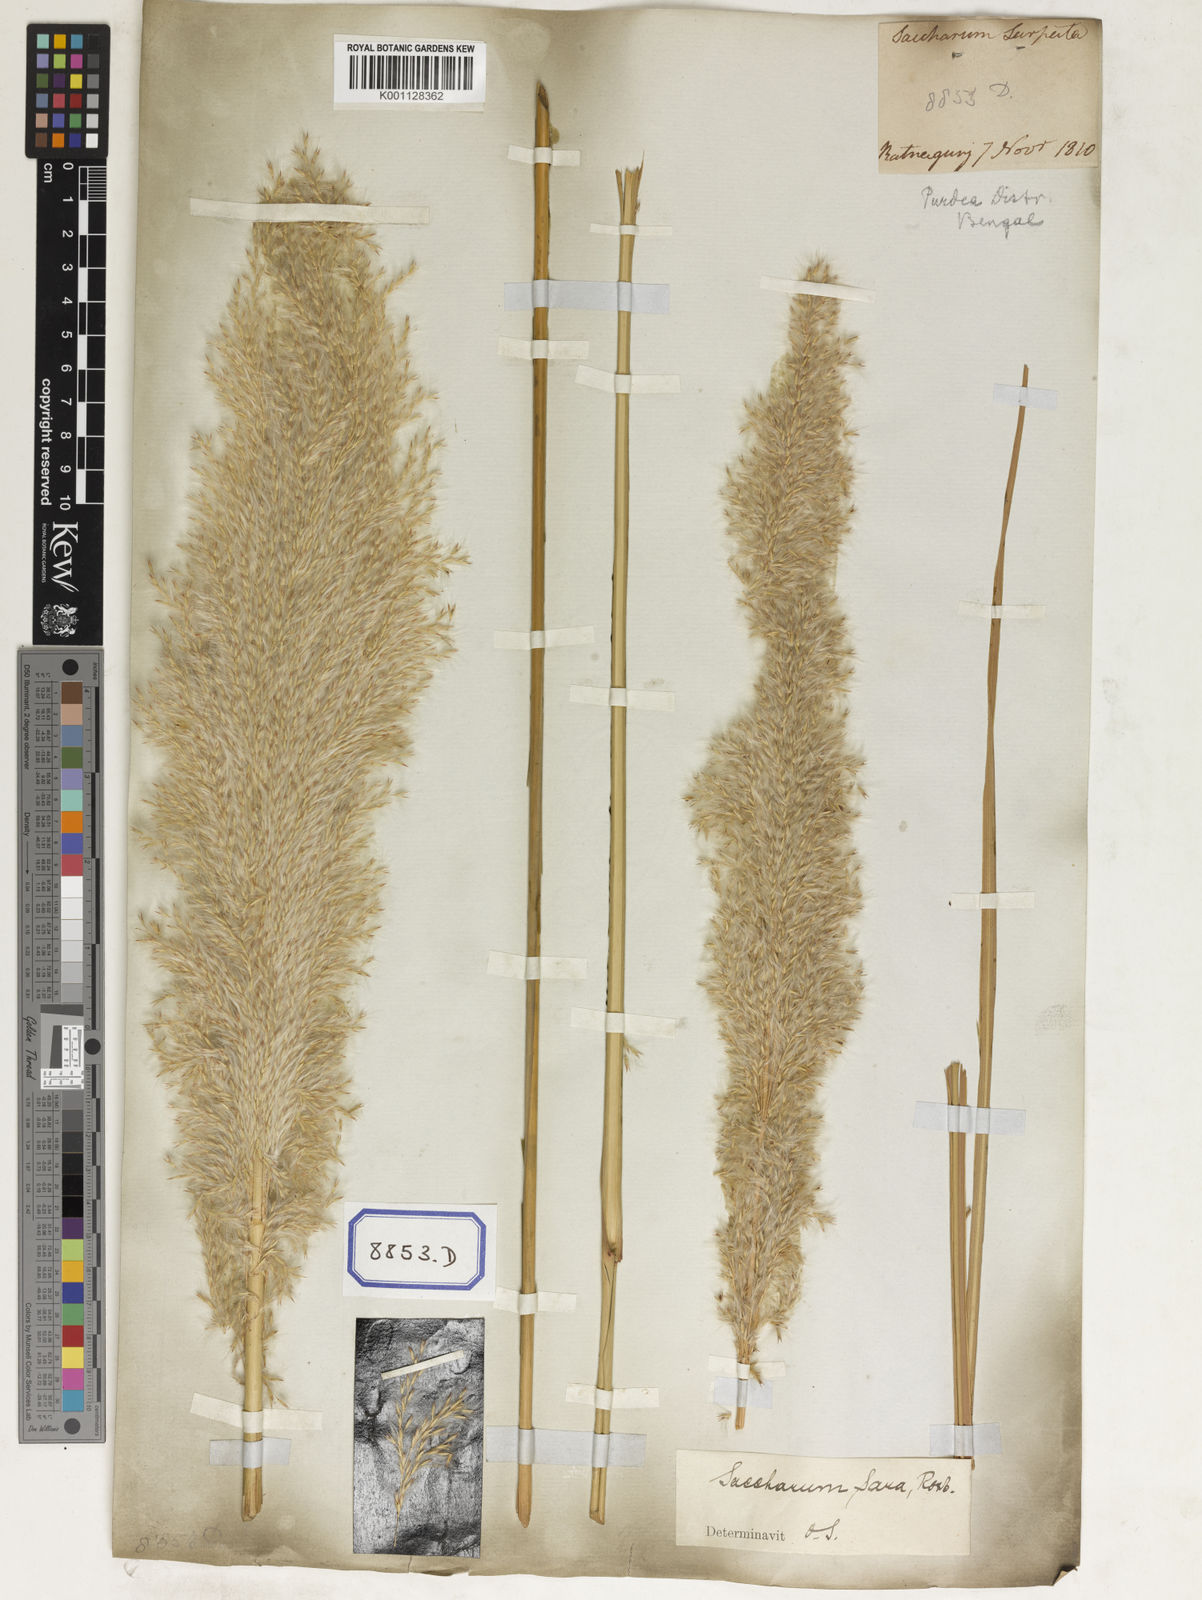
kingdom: Plantae
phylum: Tracheophyta
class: Liliopsida
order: Poales
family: Poaceae
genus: Saccharum
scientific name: Saccharum
